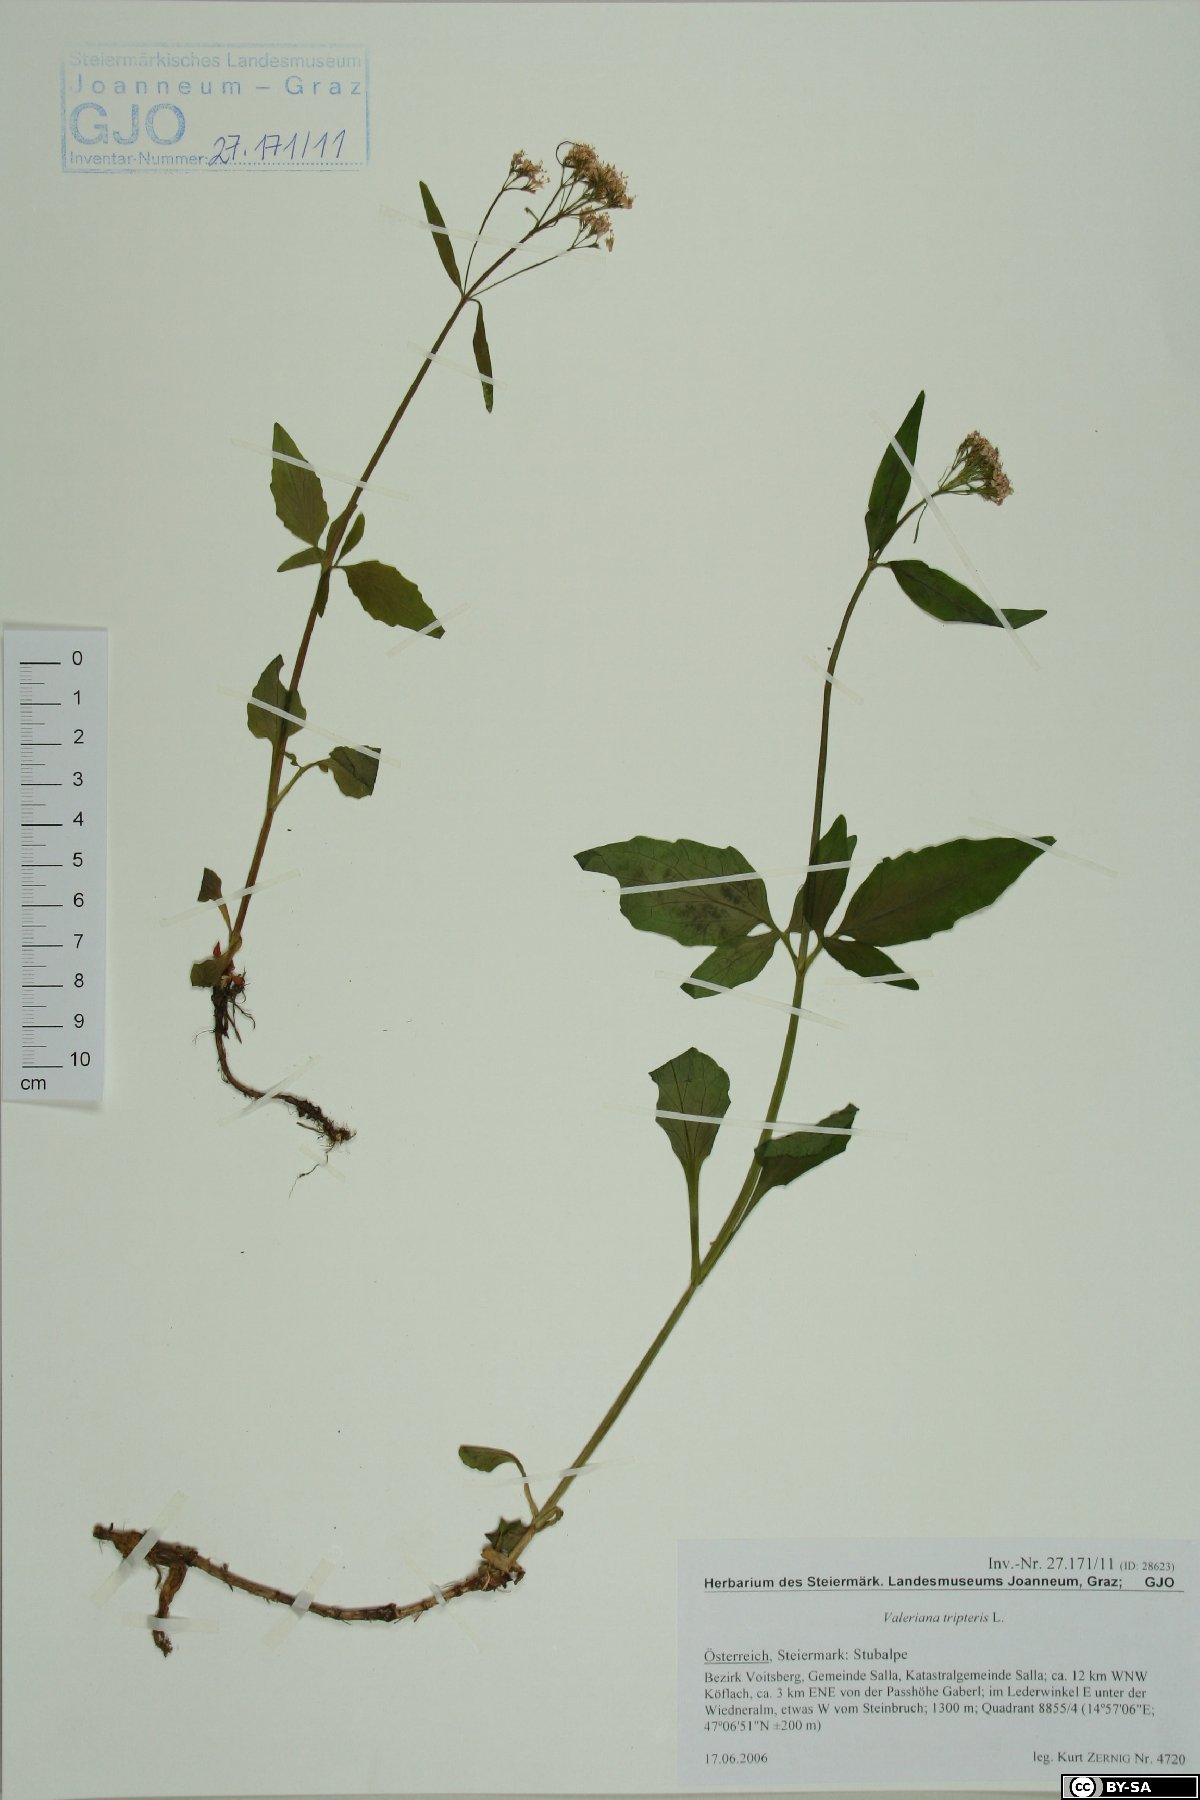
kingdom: Plantae
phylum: Tracheophyta
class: Magnoliopsida
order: Dipsacales
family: Caprifoliaceae
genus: Valeriana
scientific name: Valeriana tripteris
